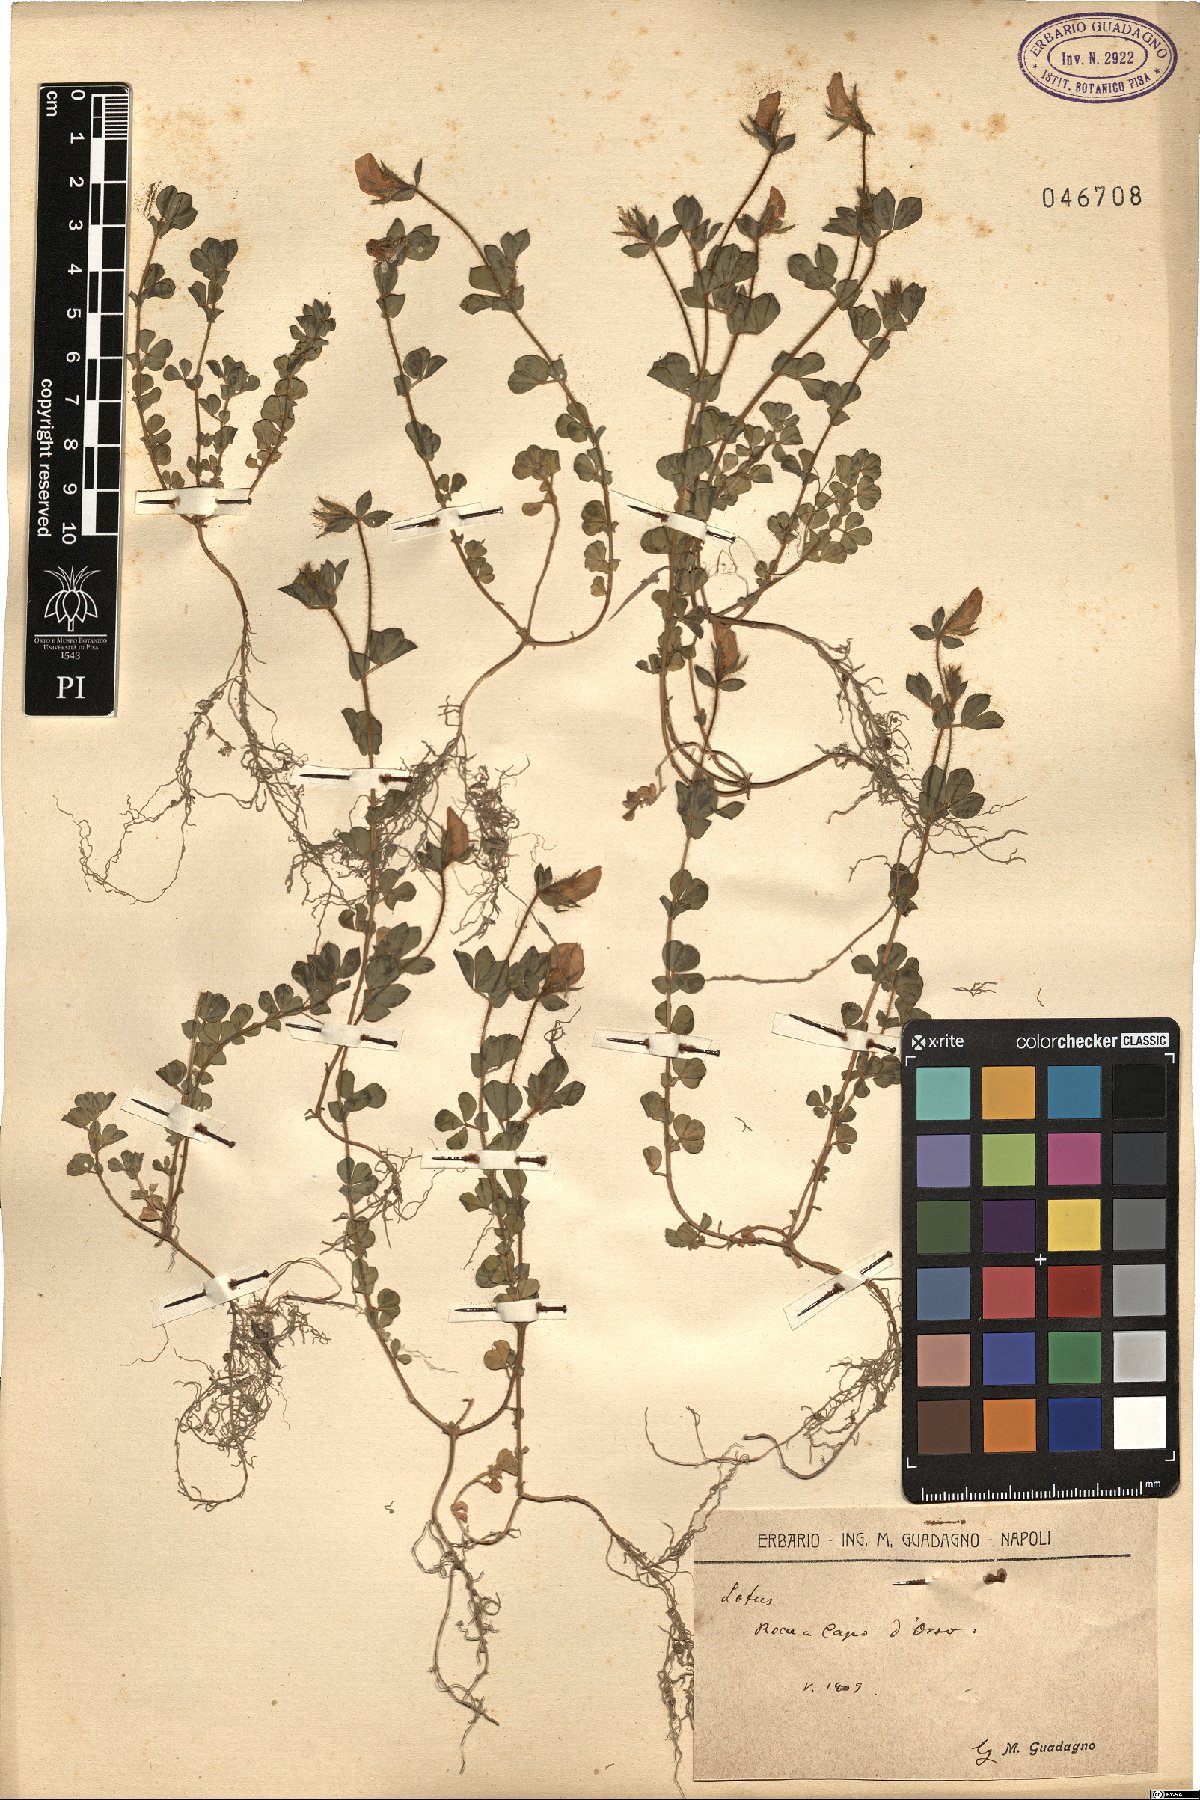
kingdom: Plantae
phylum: Tracheophyta
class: Magnoliopsida
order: Fabales
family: Fabaceae
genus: Lotus
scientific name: Lotus
